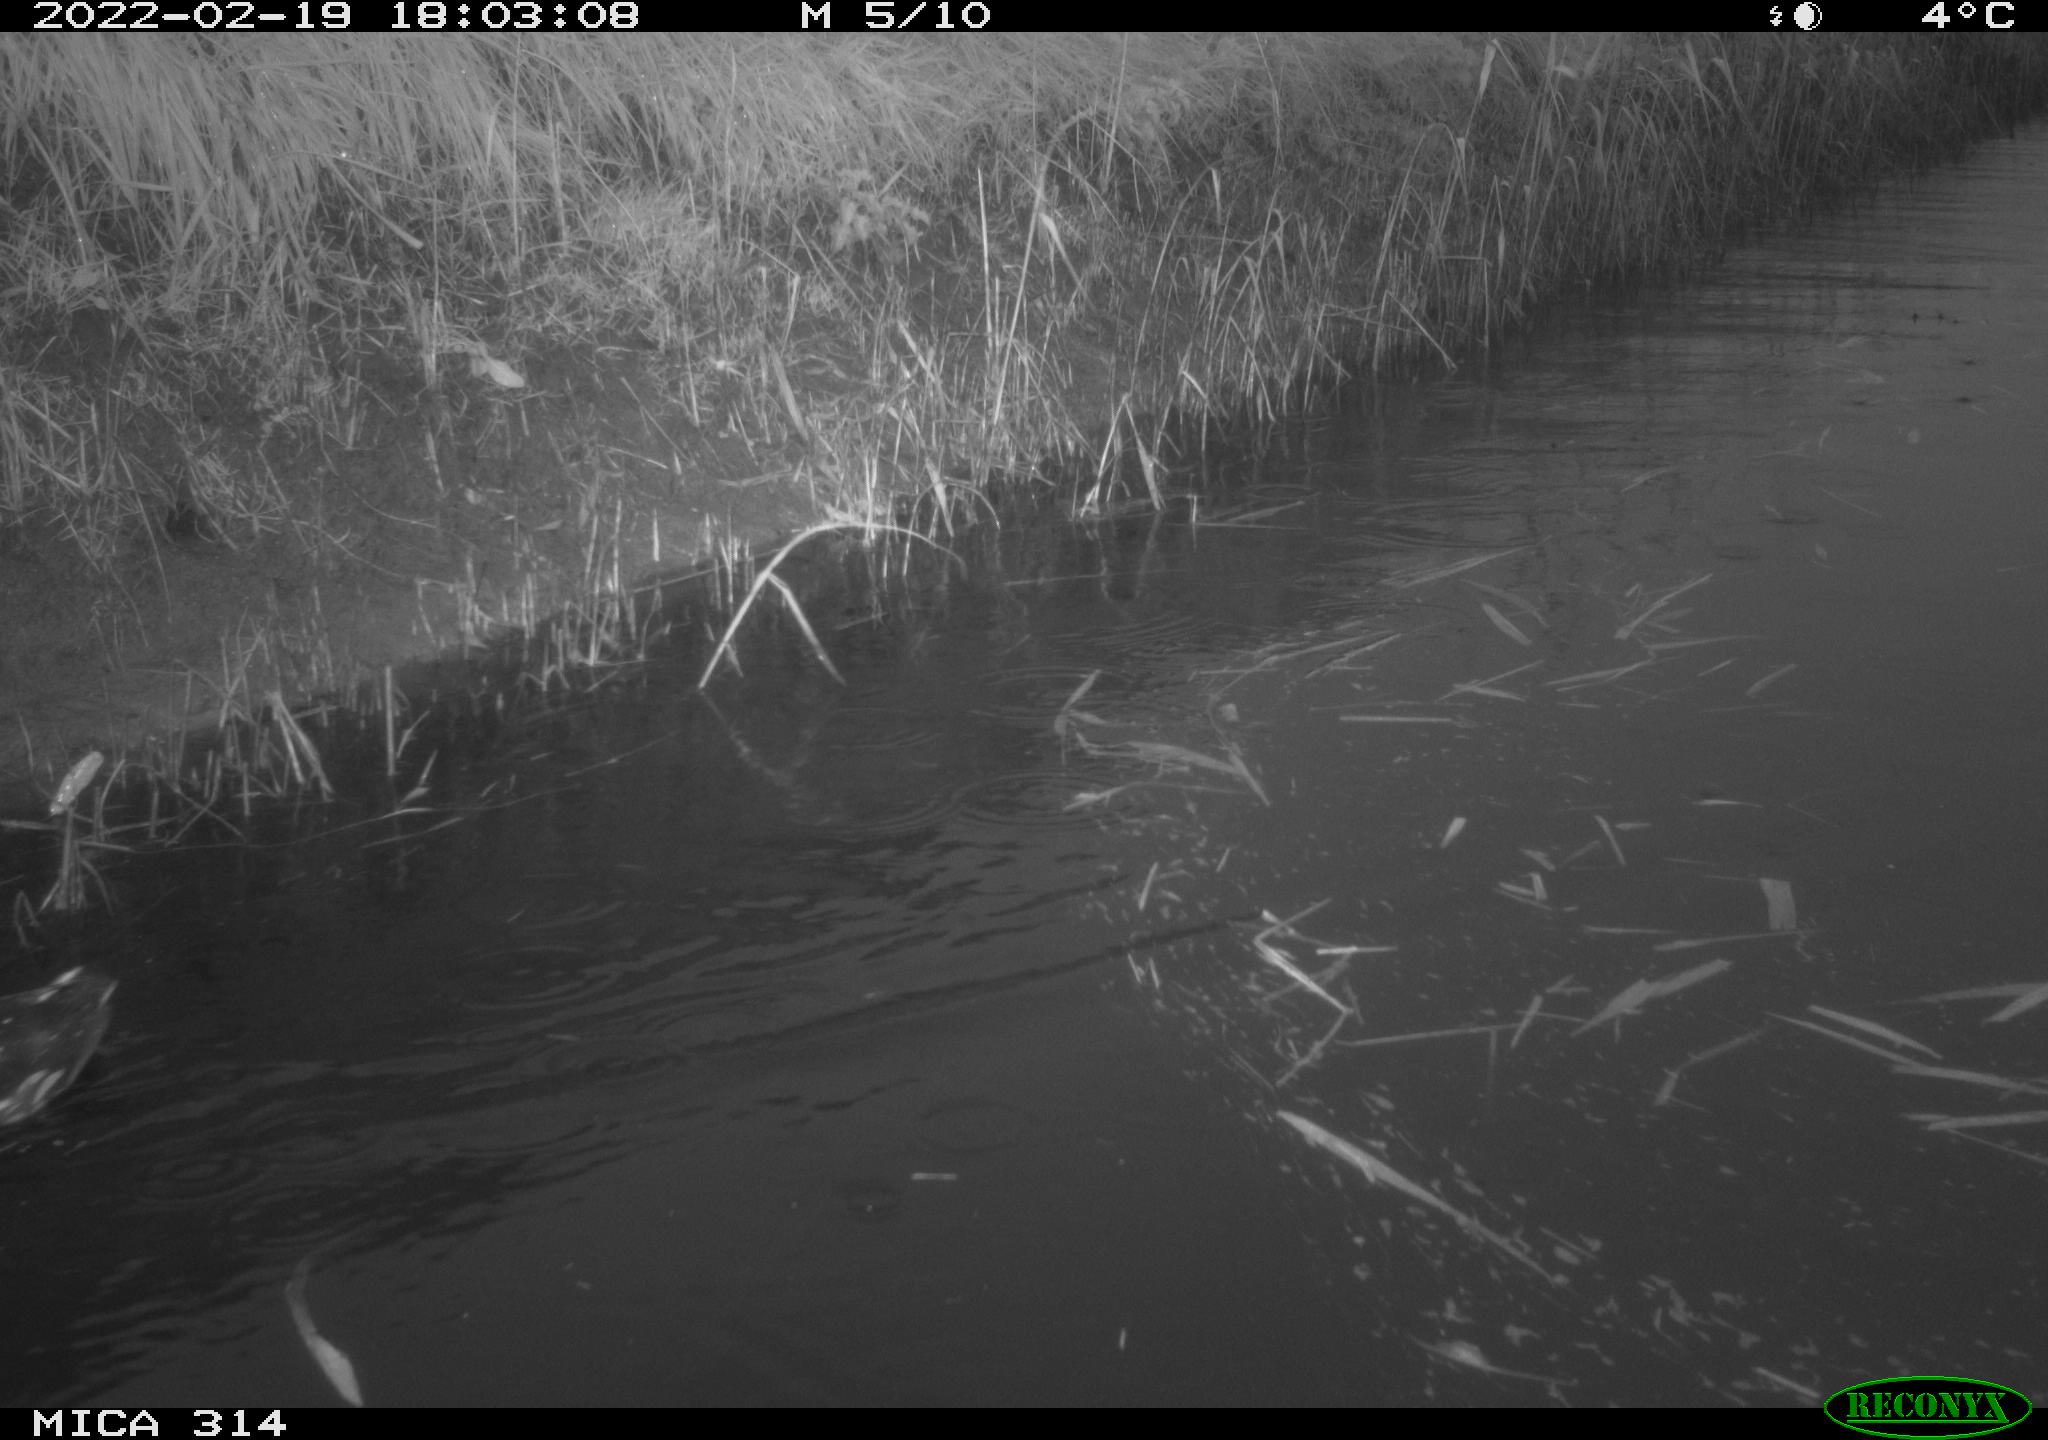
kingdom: Animalia
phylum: Chordata
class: Aves
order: Anseriformes
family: Anatidae
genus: Mareca
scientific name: Mareca strepera
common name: Gadwall
